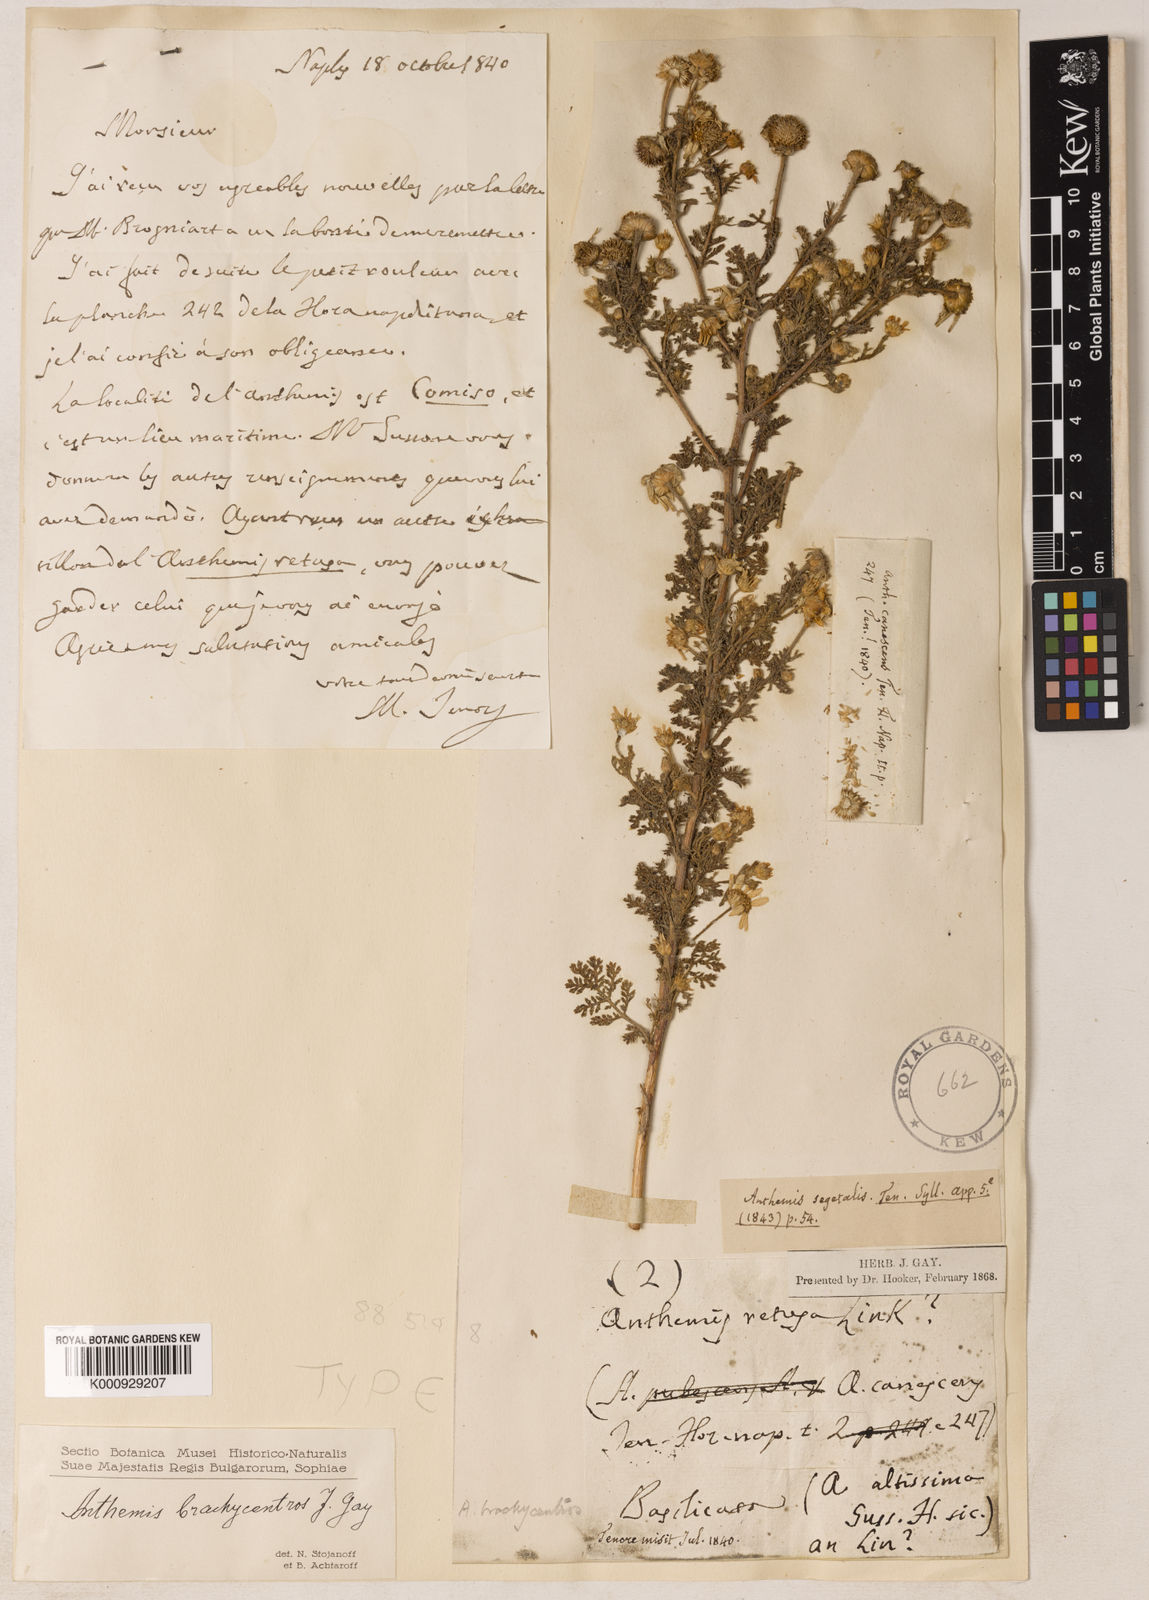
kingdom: Plantae
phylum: Tracheophyta
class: Magnoliopsida
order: Asterales
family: Asteraceae
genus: Cota
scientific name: Cota segetalis
